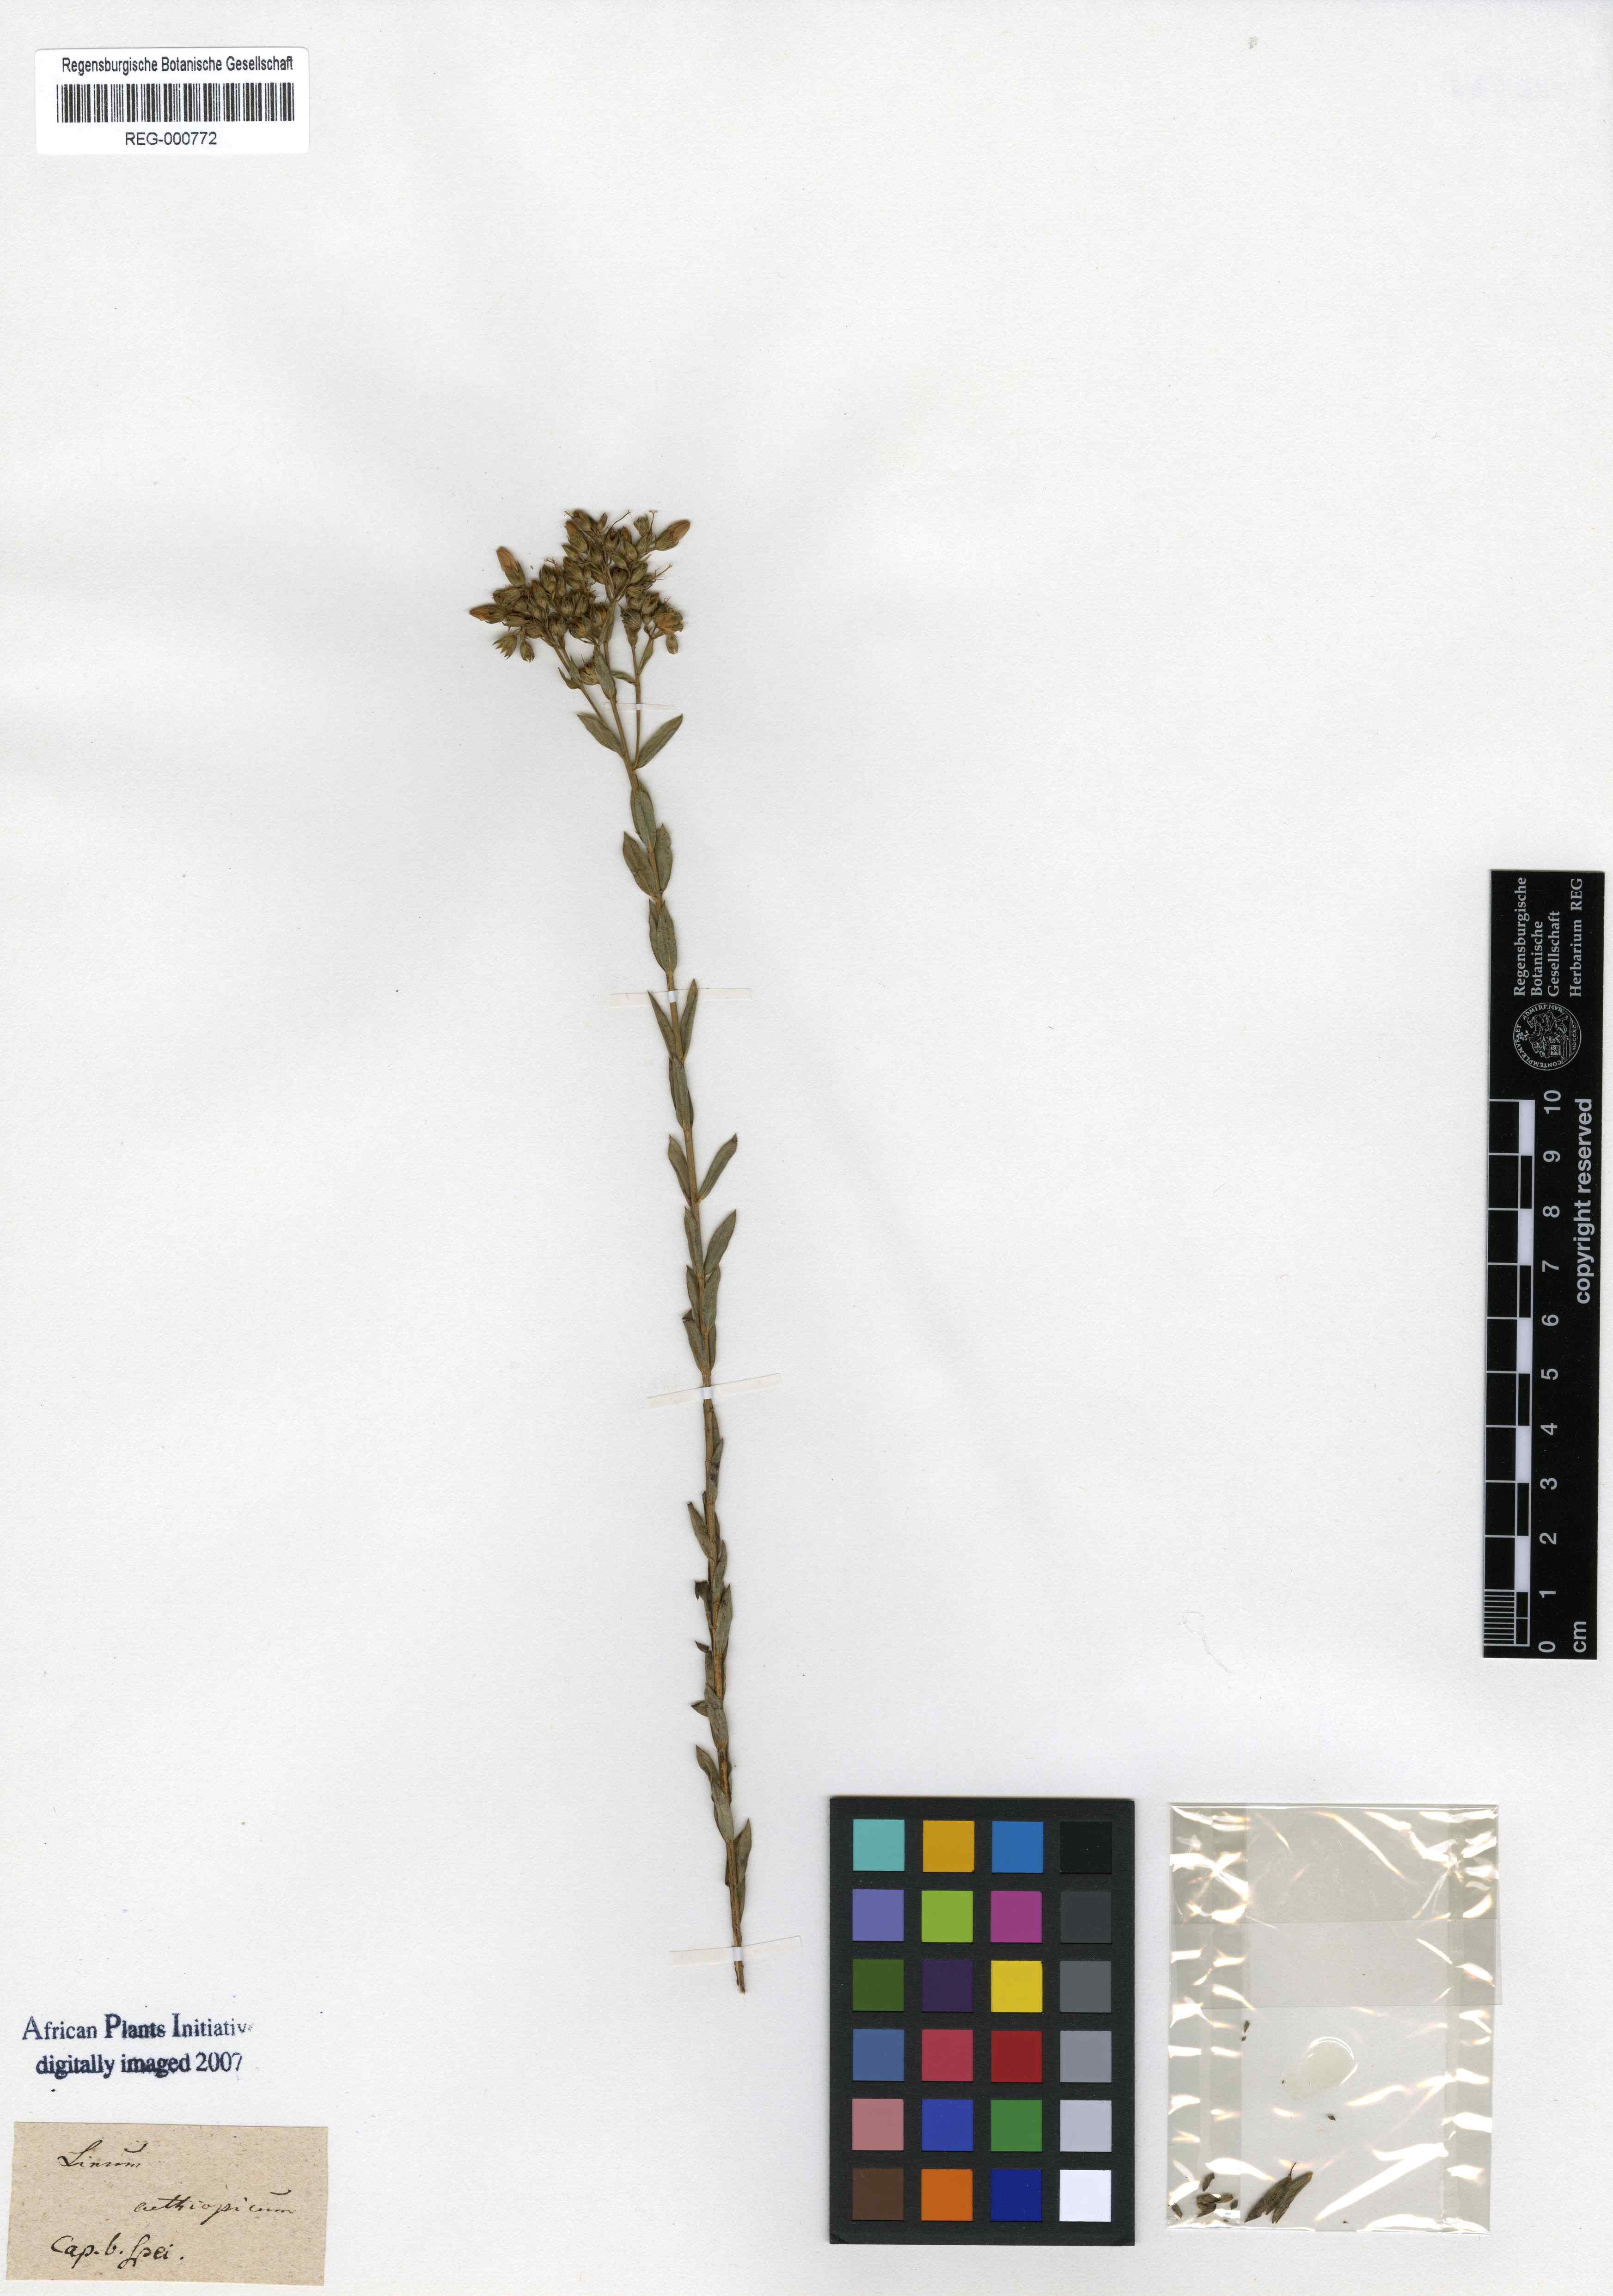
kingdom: Plantae
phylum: Tracheophyta
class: Magnoliopsida
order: Malpighiales
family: Linaceae
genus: Linum
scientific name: Linum aethiopicum
